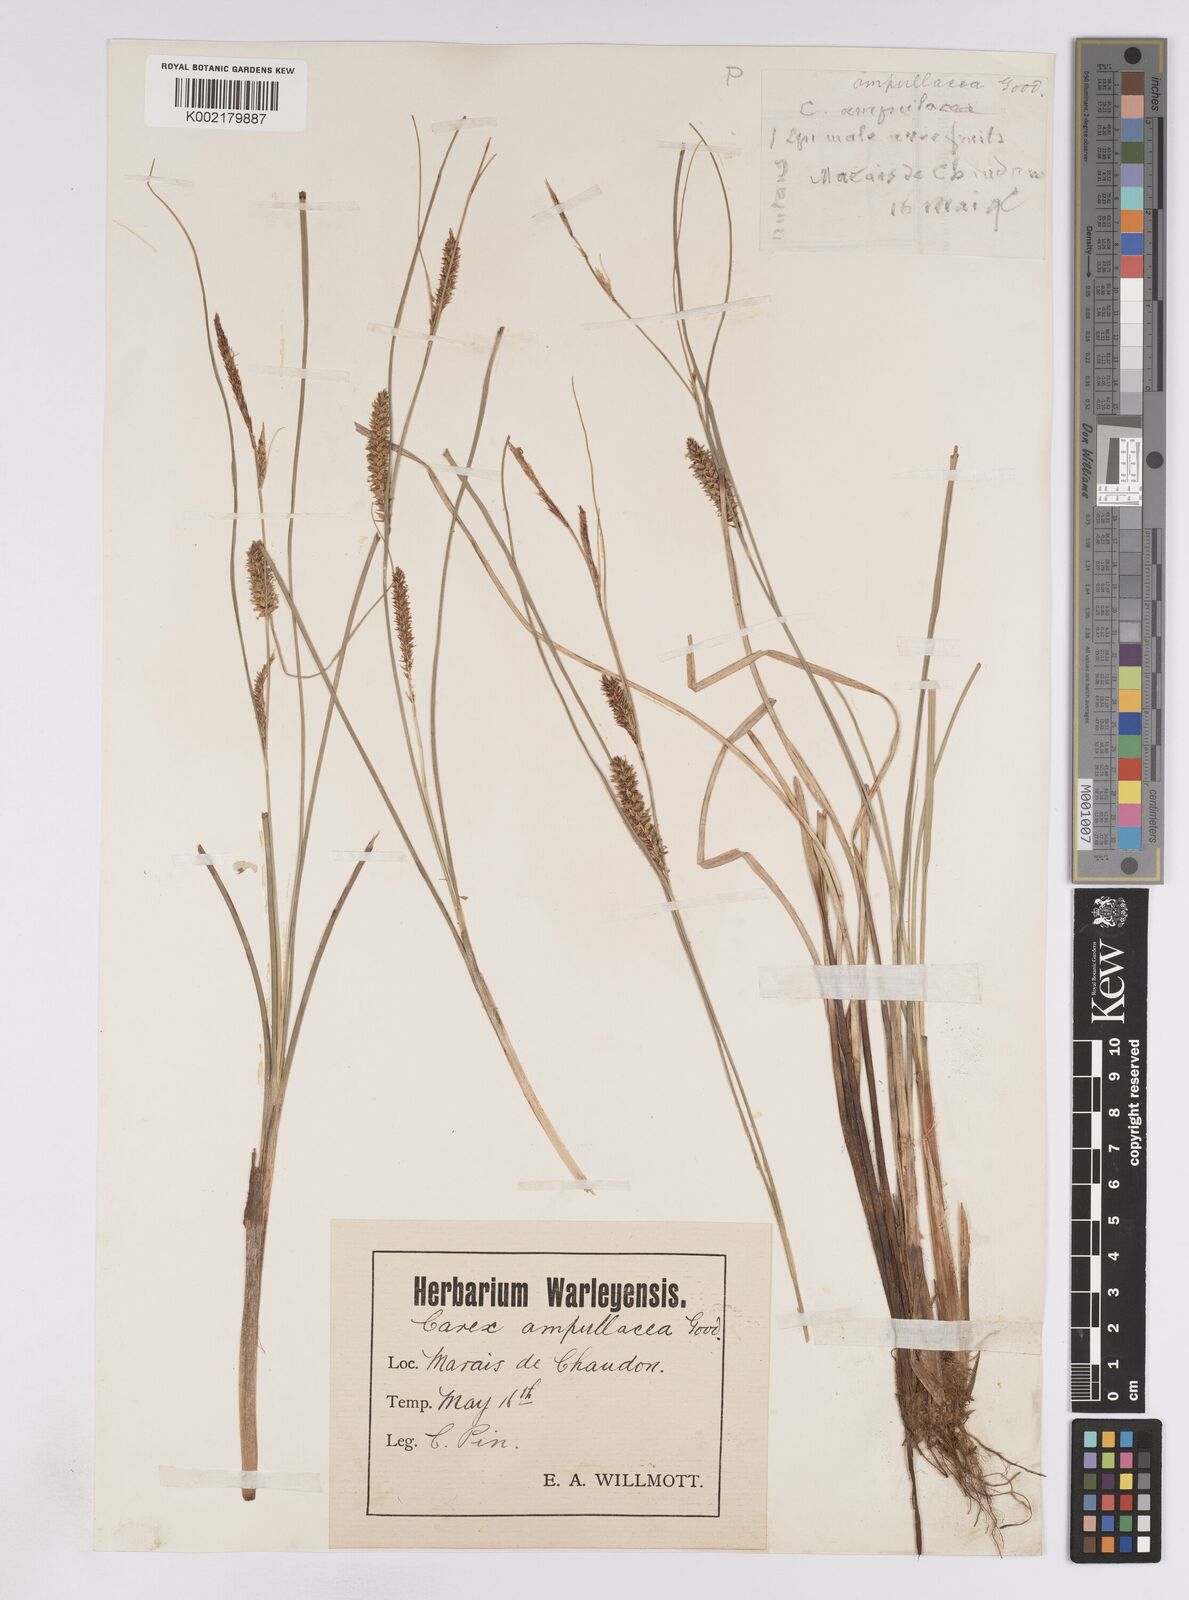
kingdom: Plantae
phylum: Tracheophyta
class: Liliopsida
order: Poales
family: Cyperaceae
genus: Carex
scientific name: Carex rostrata
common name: Bottle sedge
